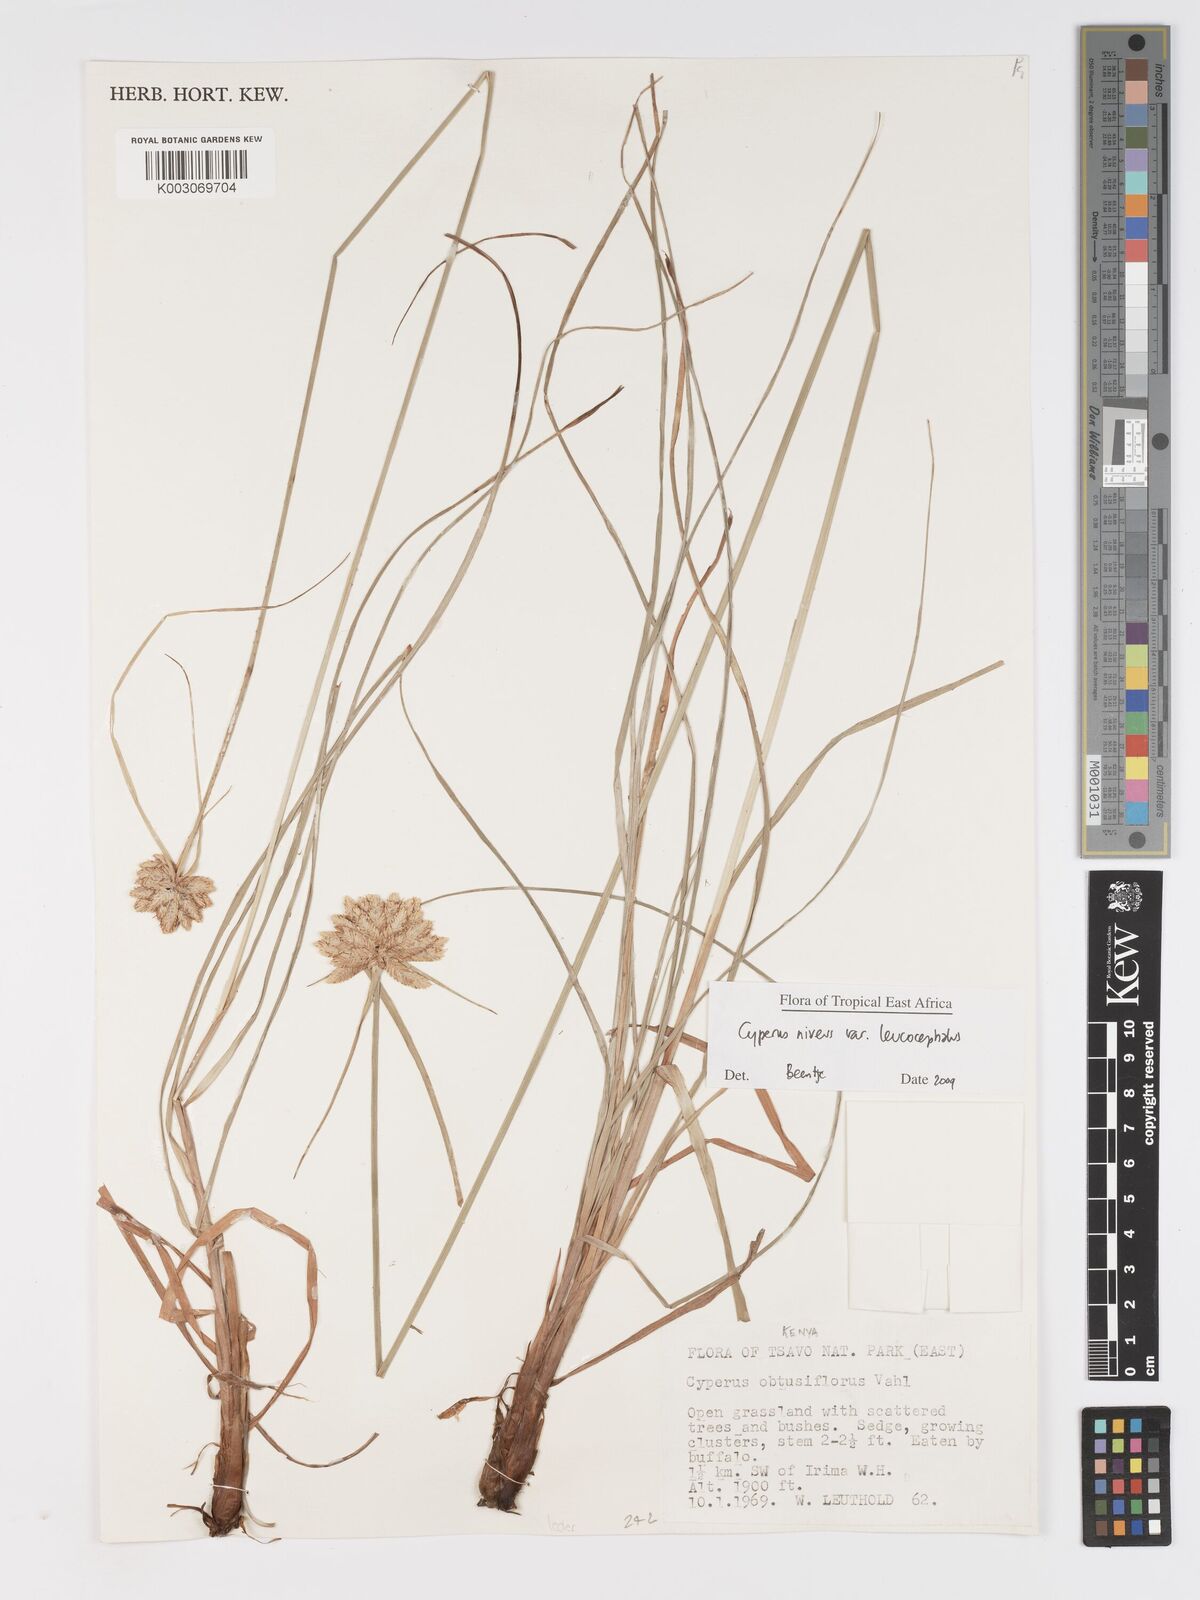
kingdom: Plantae
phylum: Tracheophyta
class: Liliopsida
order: Poales
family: Cyperaceae
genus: Cyperus
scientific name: Cyperus niveus
